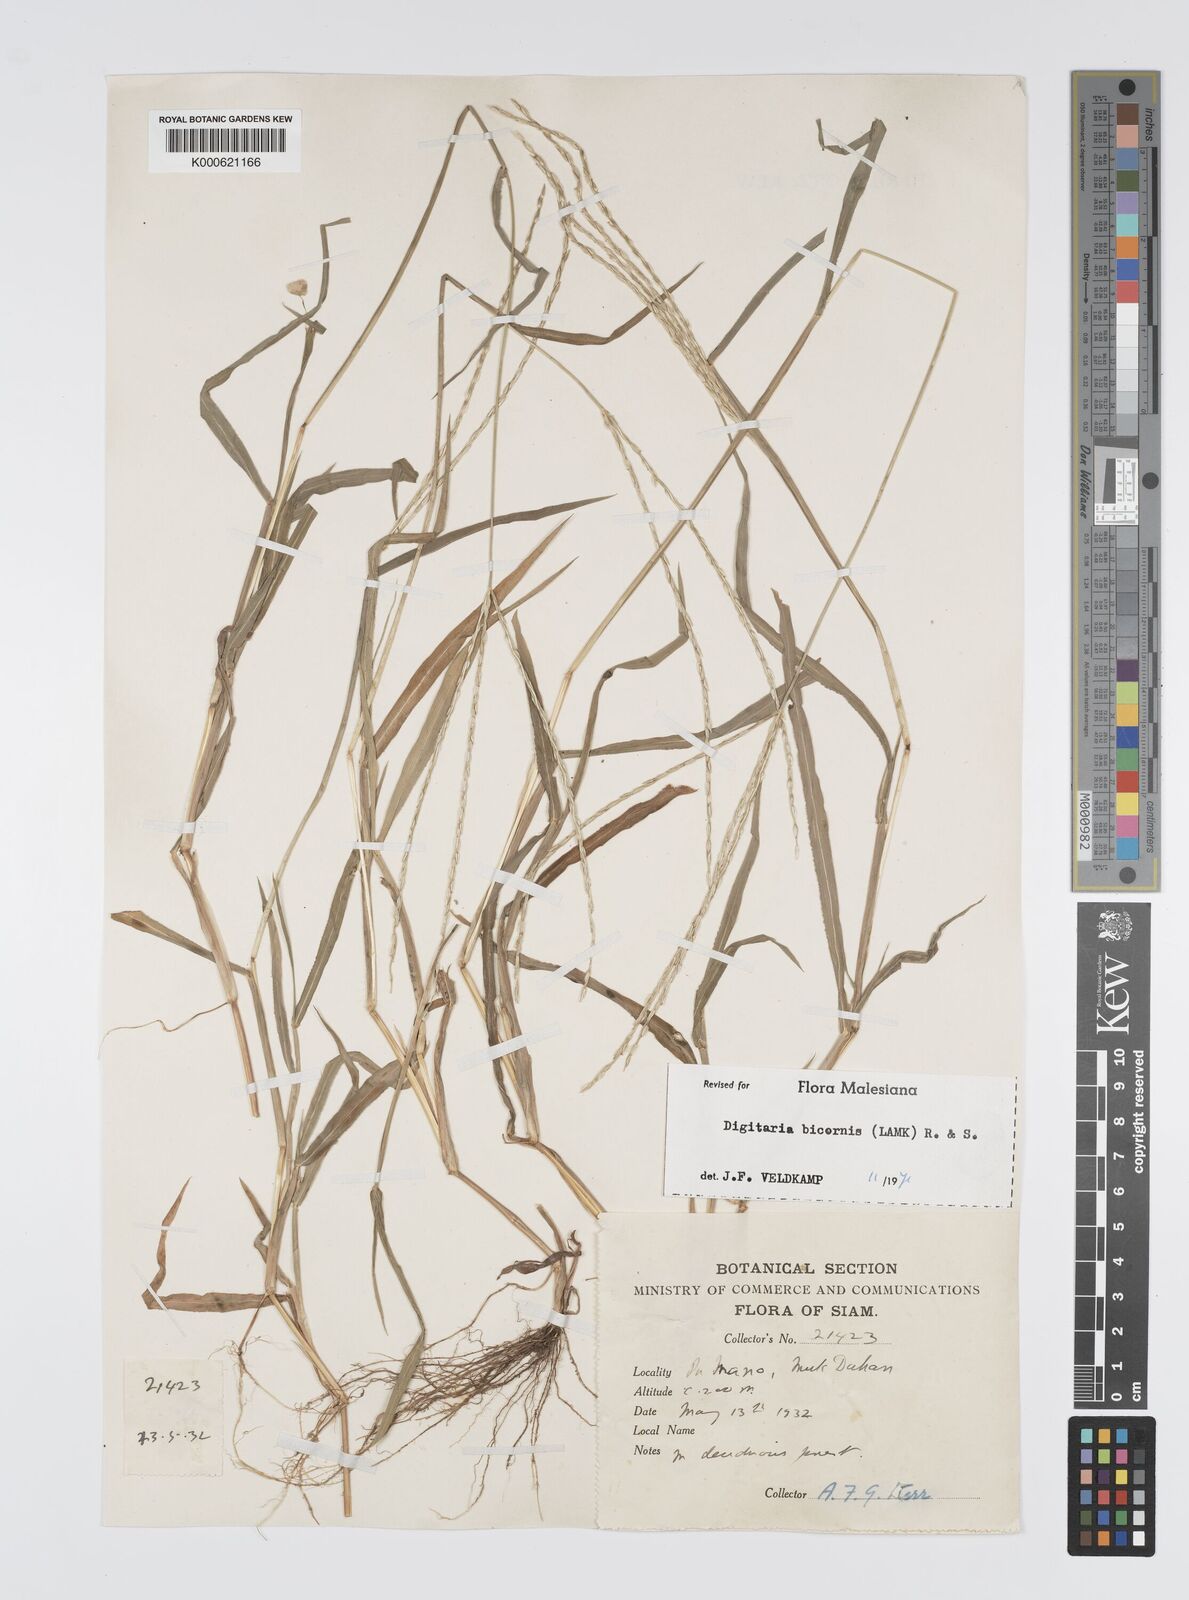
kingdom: Plantae
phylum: Tracheophyta
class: Liliopsida
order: Poales
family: Poaceae
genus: Digitaria
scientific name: Digitaria bicornis
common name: Asian crabgrass
